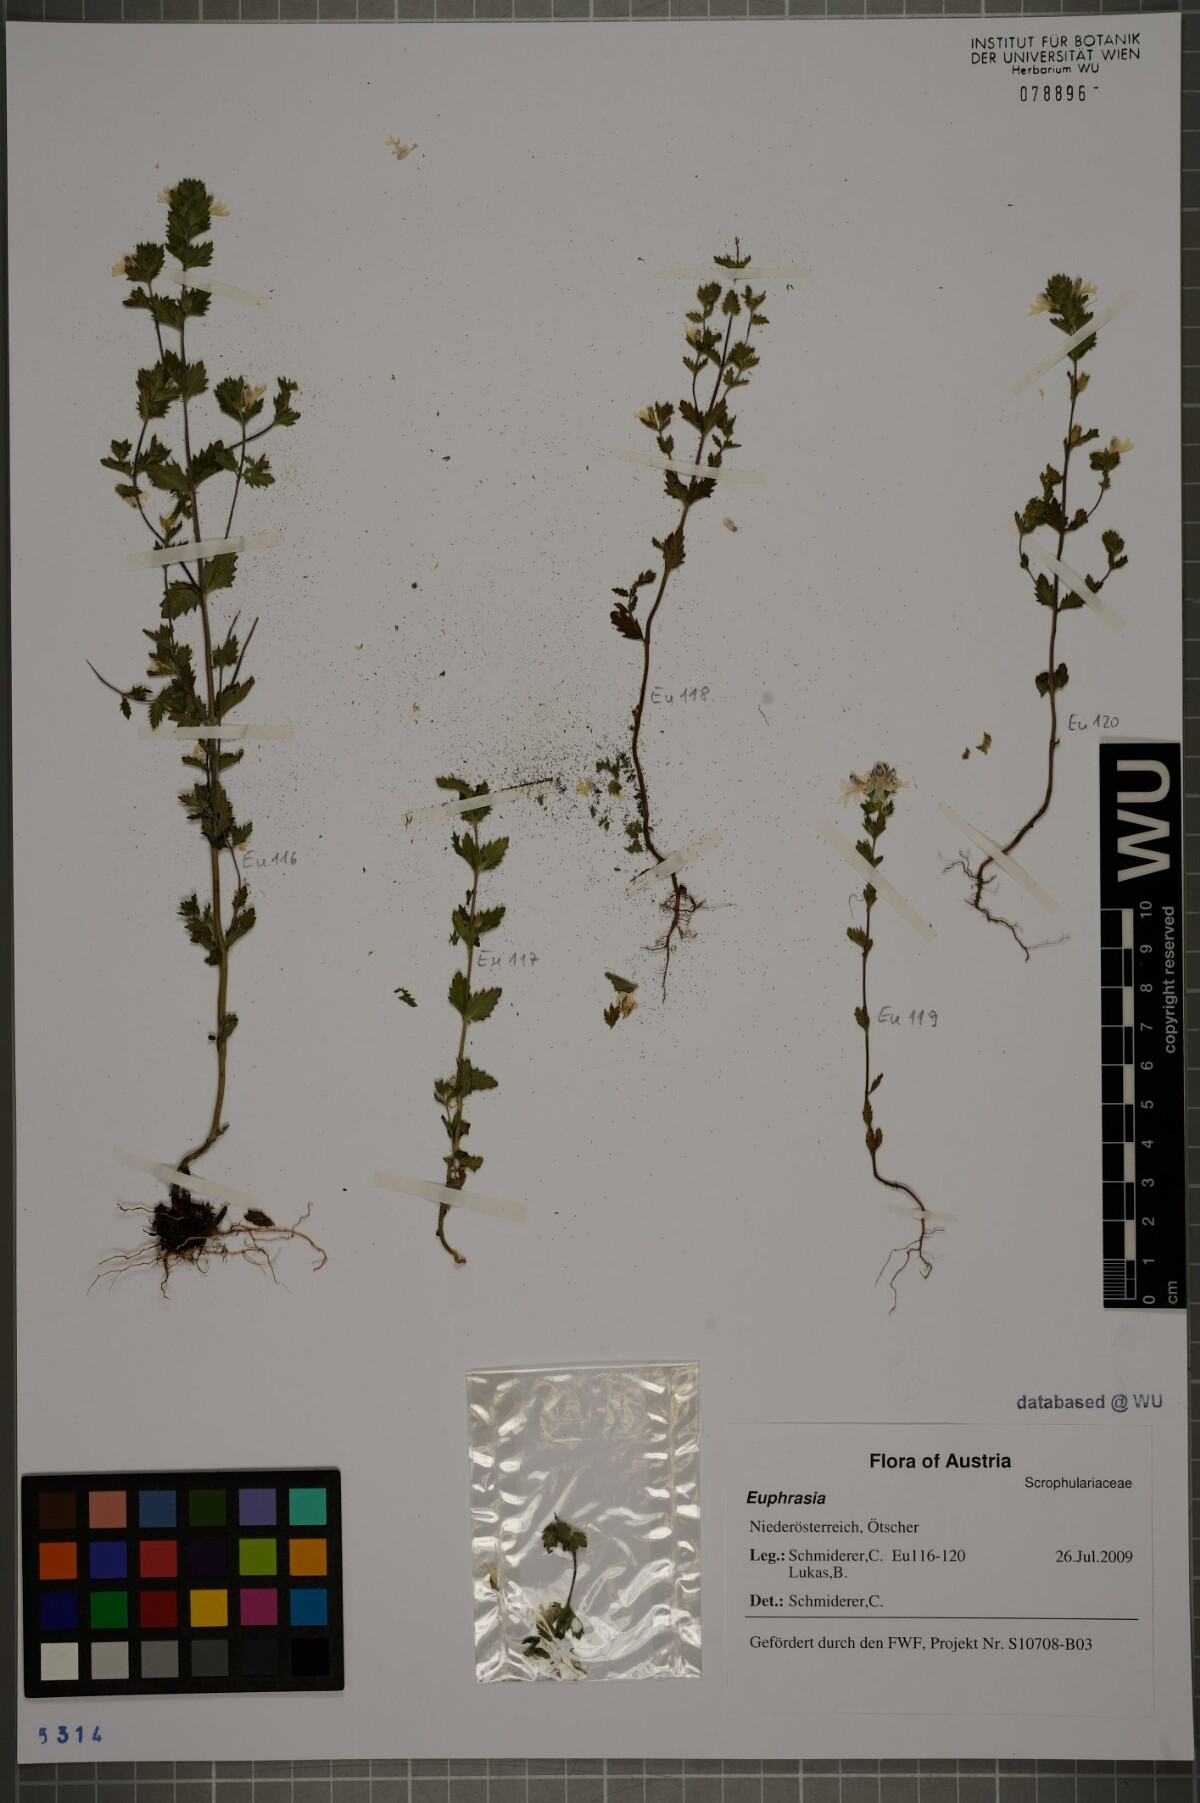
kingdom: Plantae
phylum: Tracheophyta
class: Magnoliopsida
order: Lamiales
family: Orobanchaceae
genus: Euphrasia
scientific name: Euphrasia
